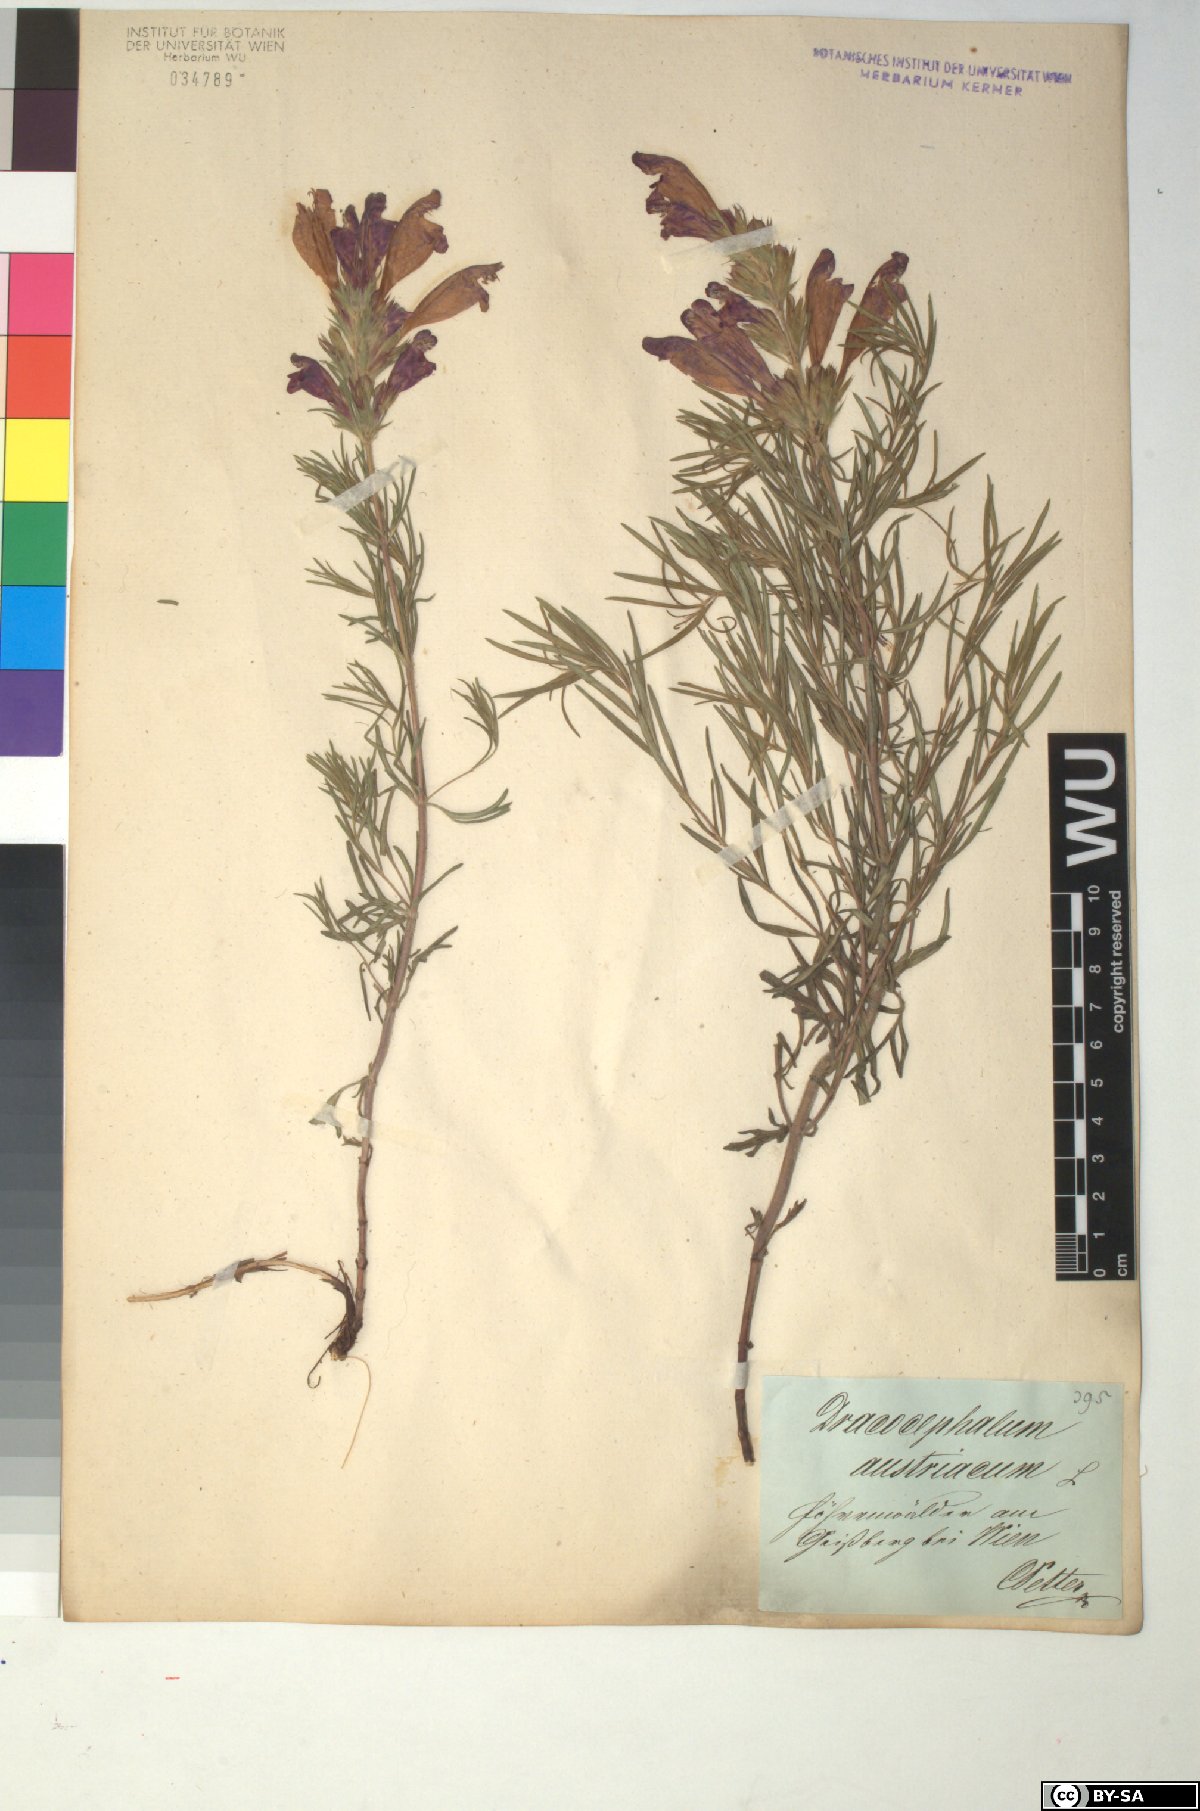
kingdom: Plantae
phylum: Tracheophyta
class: Magnoliopsida
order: Lamiales
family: Lamiaceae
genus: Dracocephalum
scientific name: Dracocephalum austriacum
